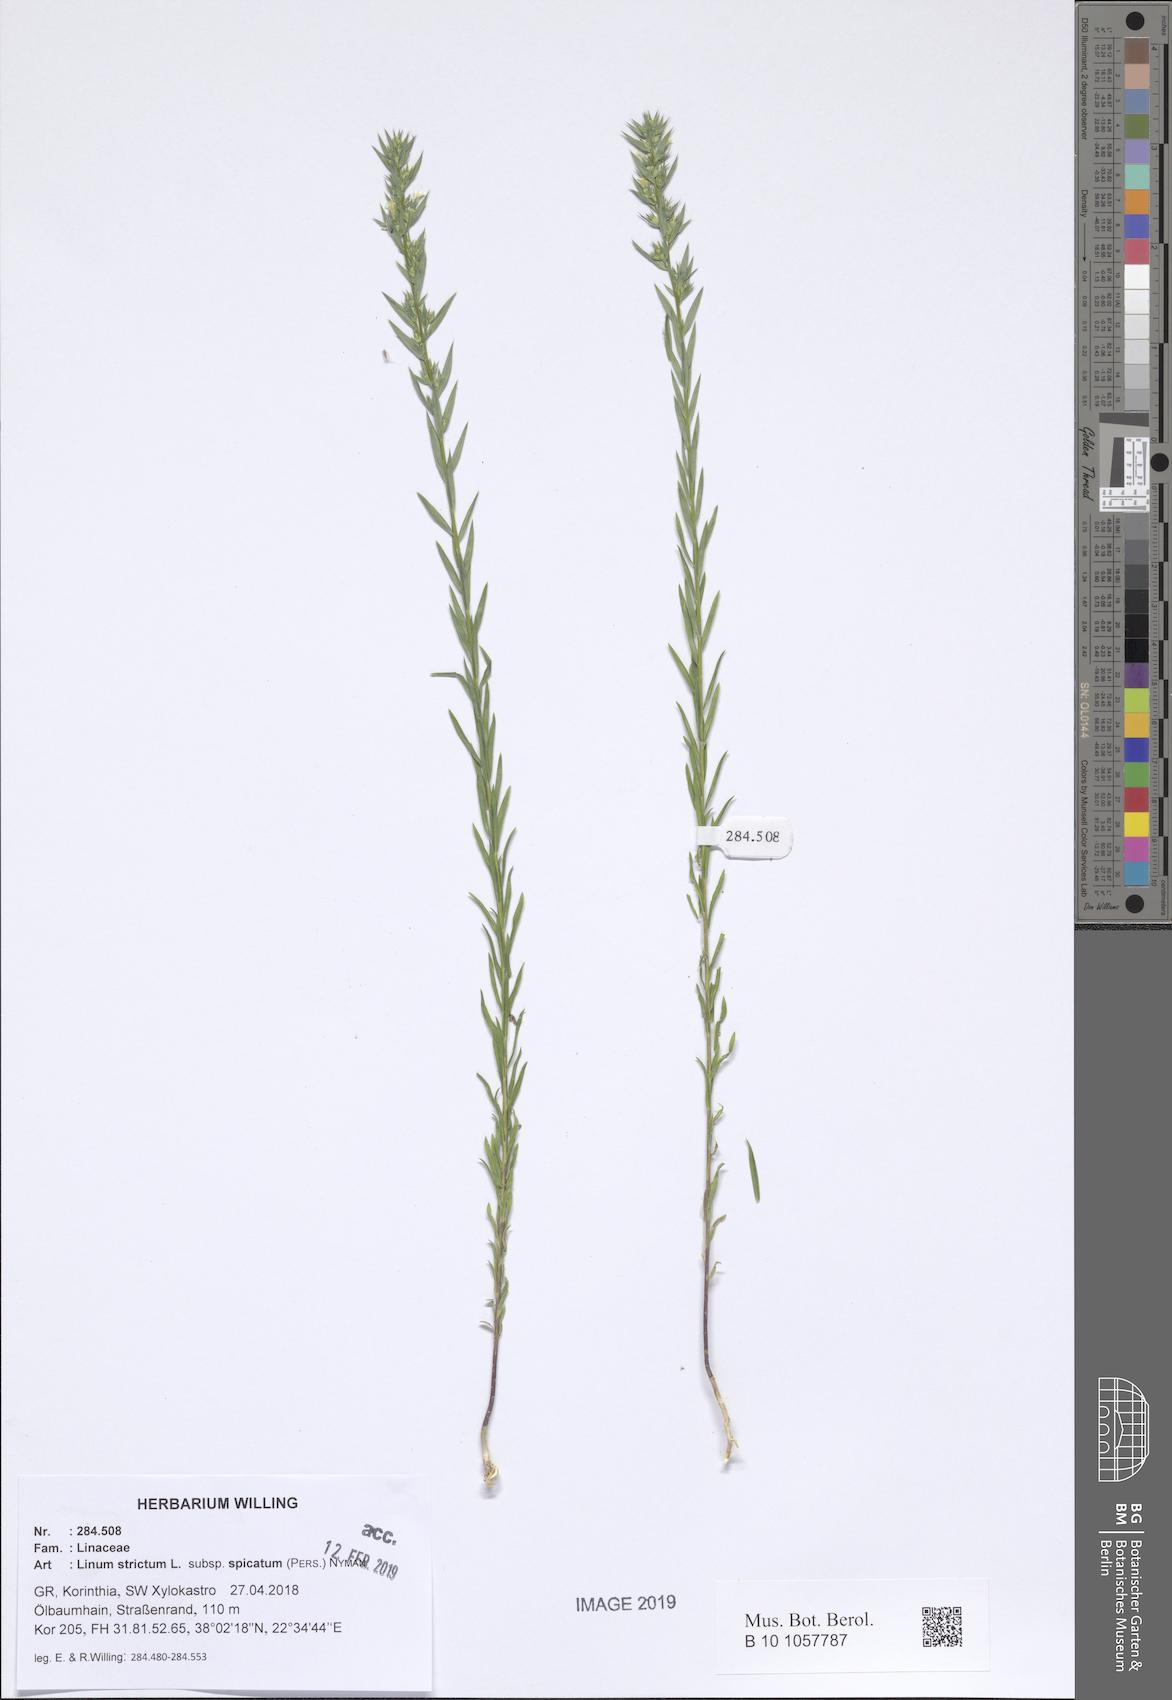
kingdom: Plantae
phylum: Tracheophyta
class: Magnoliopsida
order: Malpighiales
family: Linaceae
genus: Linum
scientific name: Linum strictum
